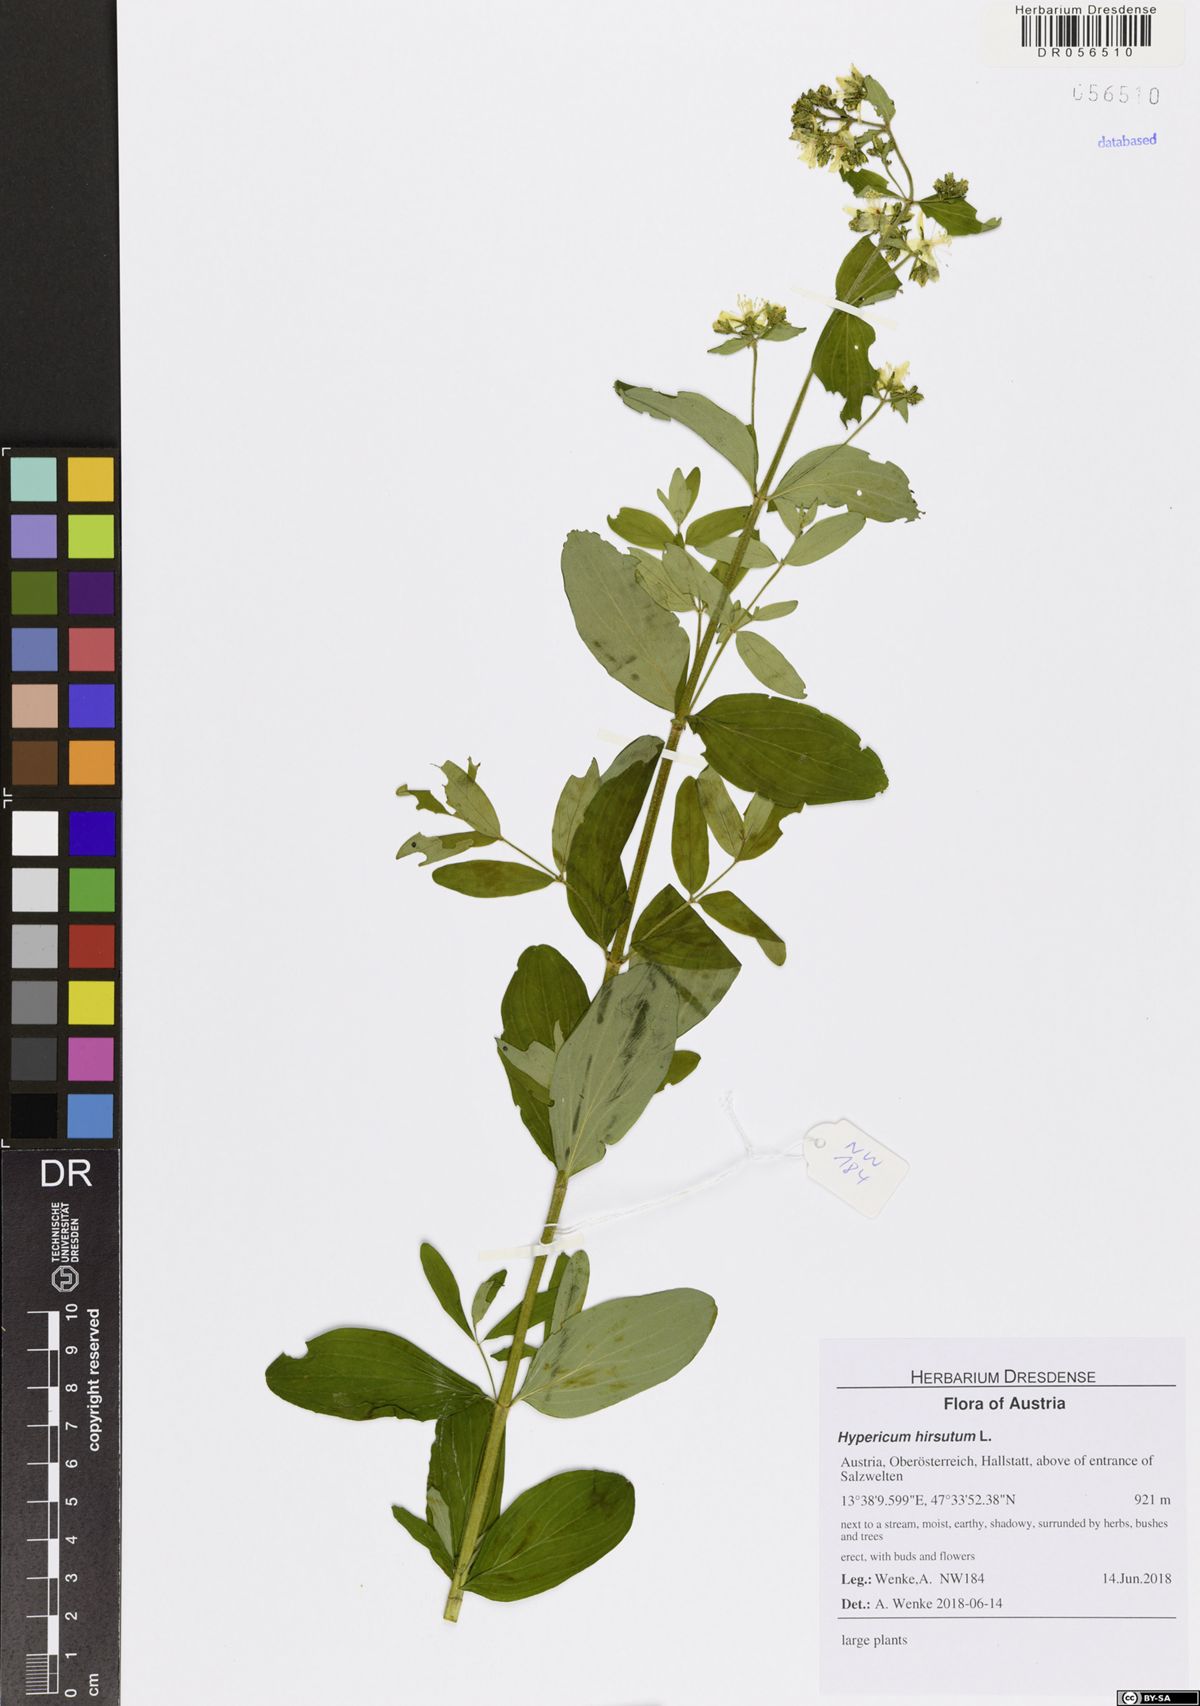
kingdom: Plantae
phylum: Tracheophyta
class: Magnoliopsida
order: Malpighiales
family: Hypericaceae
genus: Hypericum
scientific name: Hypericum hirsutum
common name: Hairy st. john's-wort
